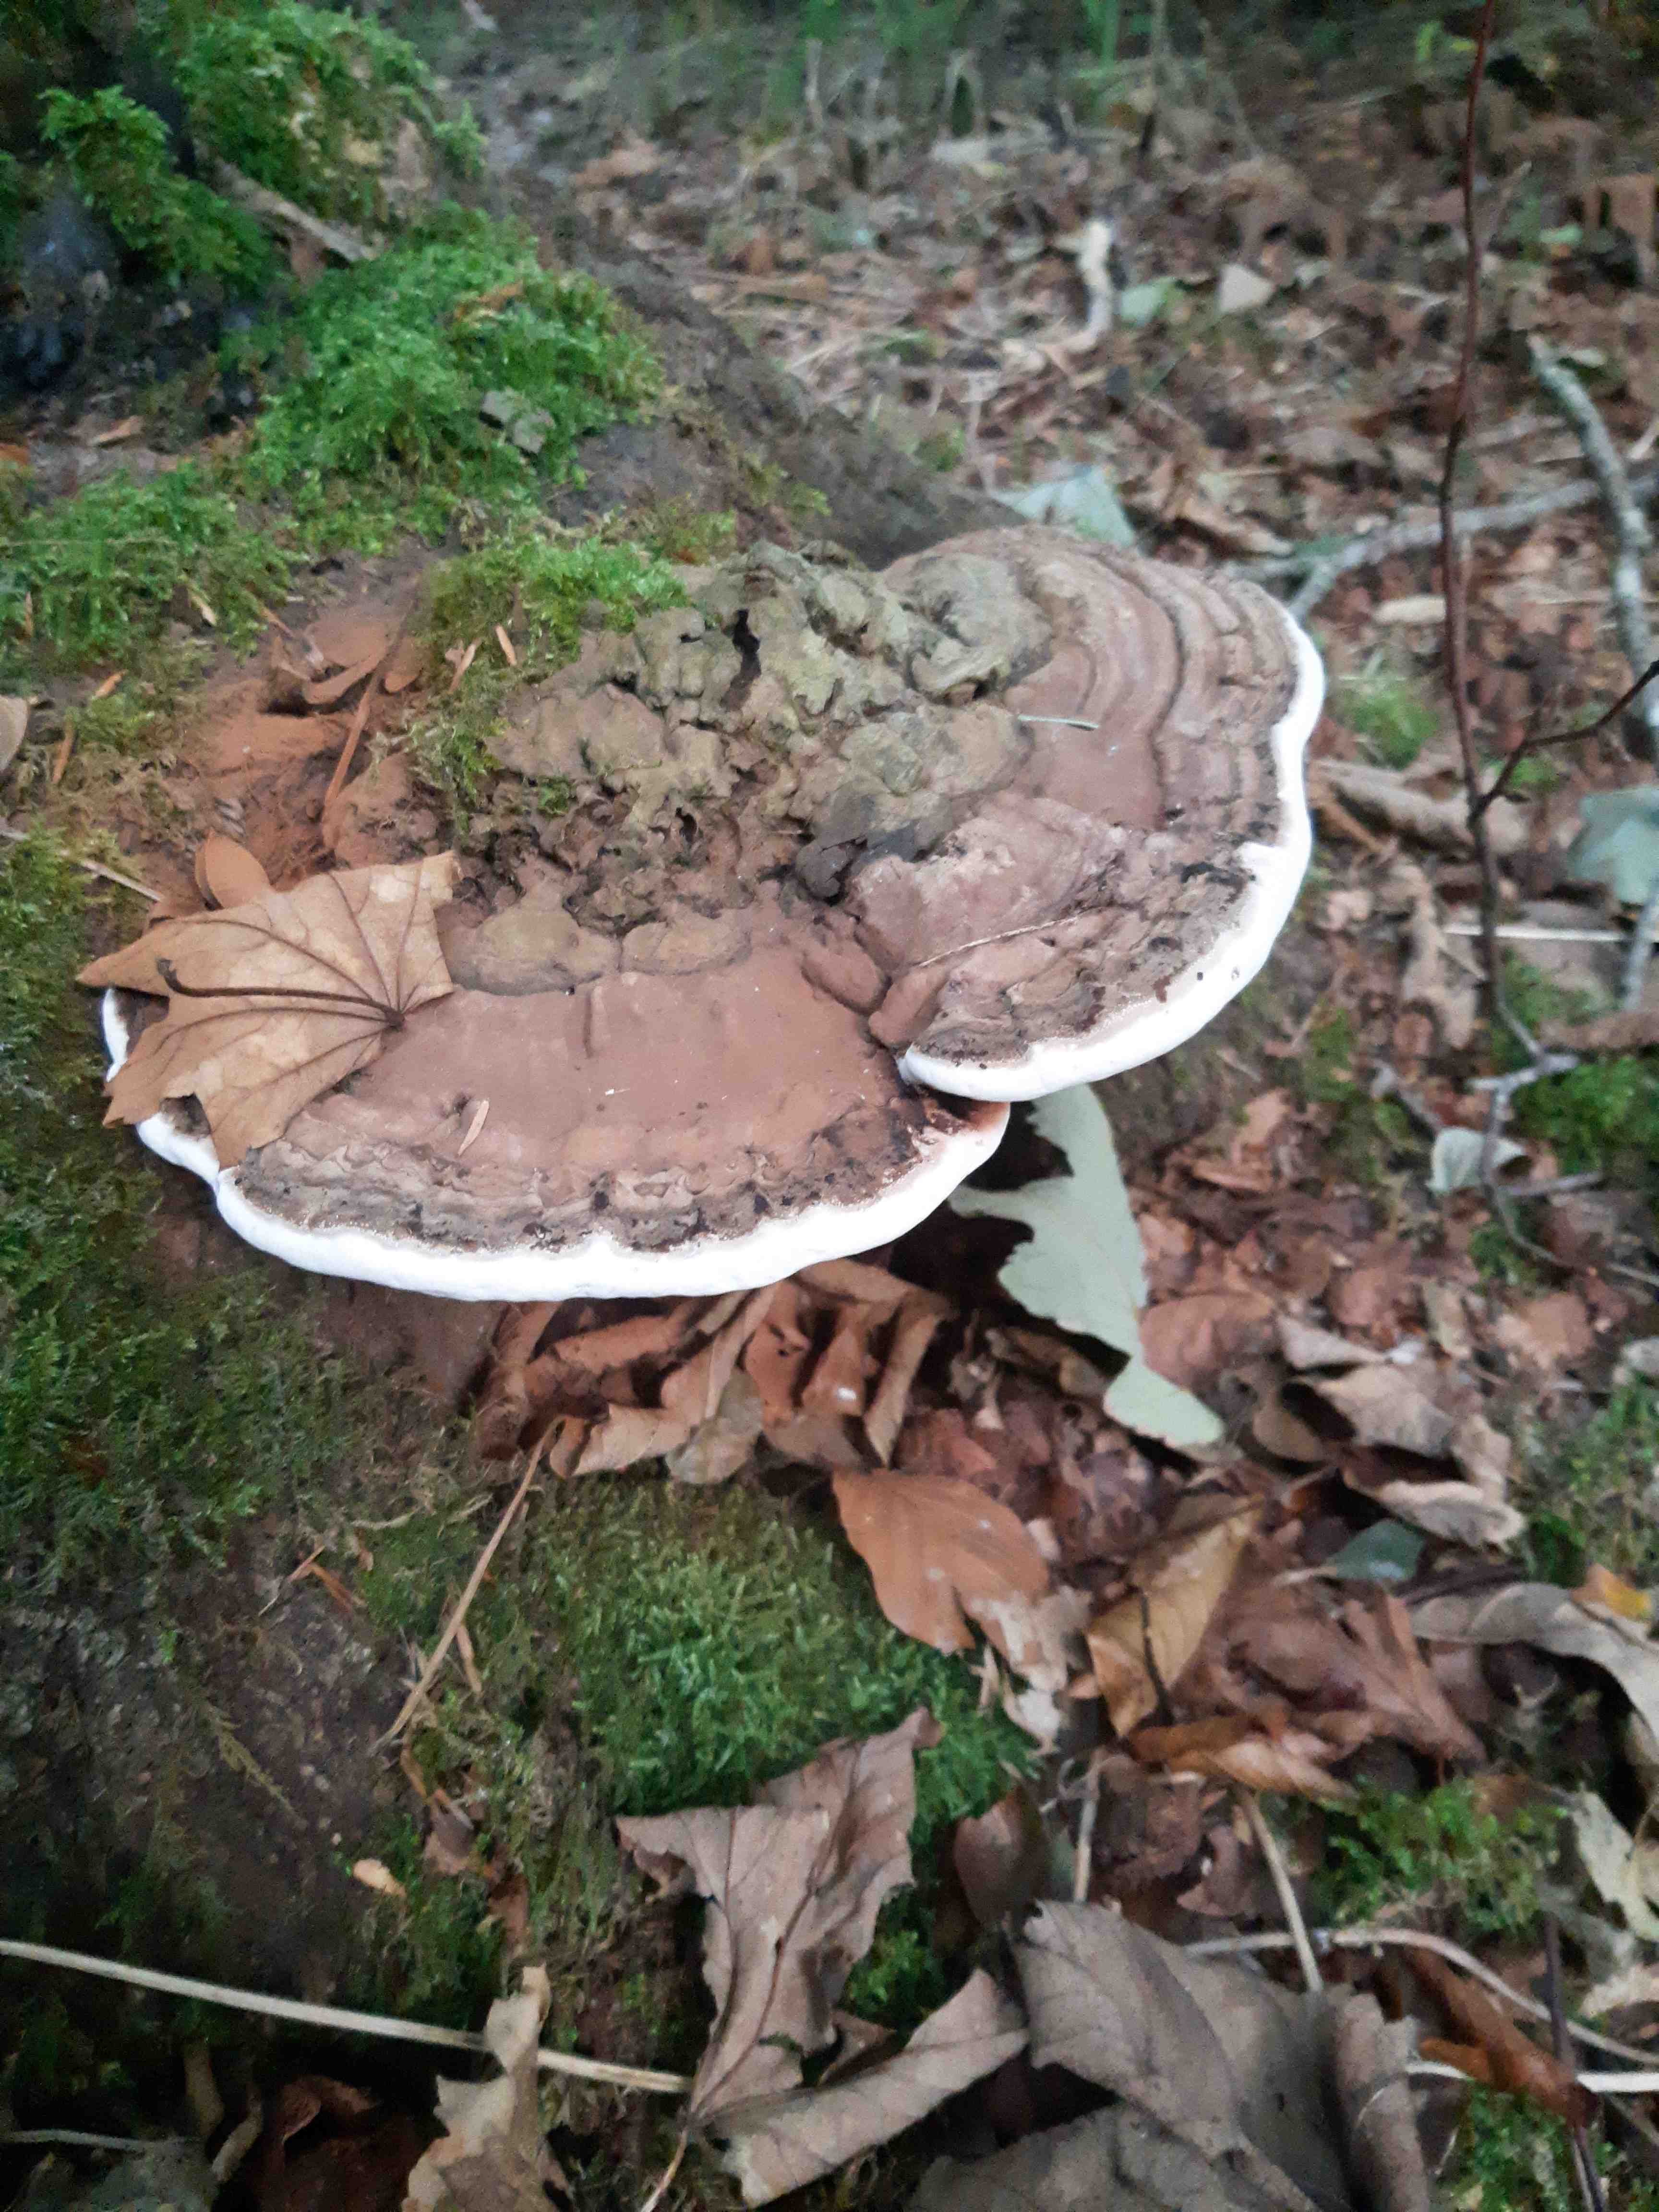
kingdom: Fungi
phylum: Basidiomycota
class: Agaricomycetes
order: Polyporales
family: Polyporaceae
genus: Ganoderma
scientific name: Ganoderma applanatum
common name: flad lakporesvamp
